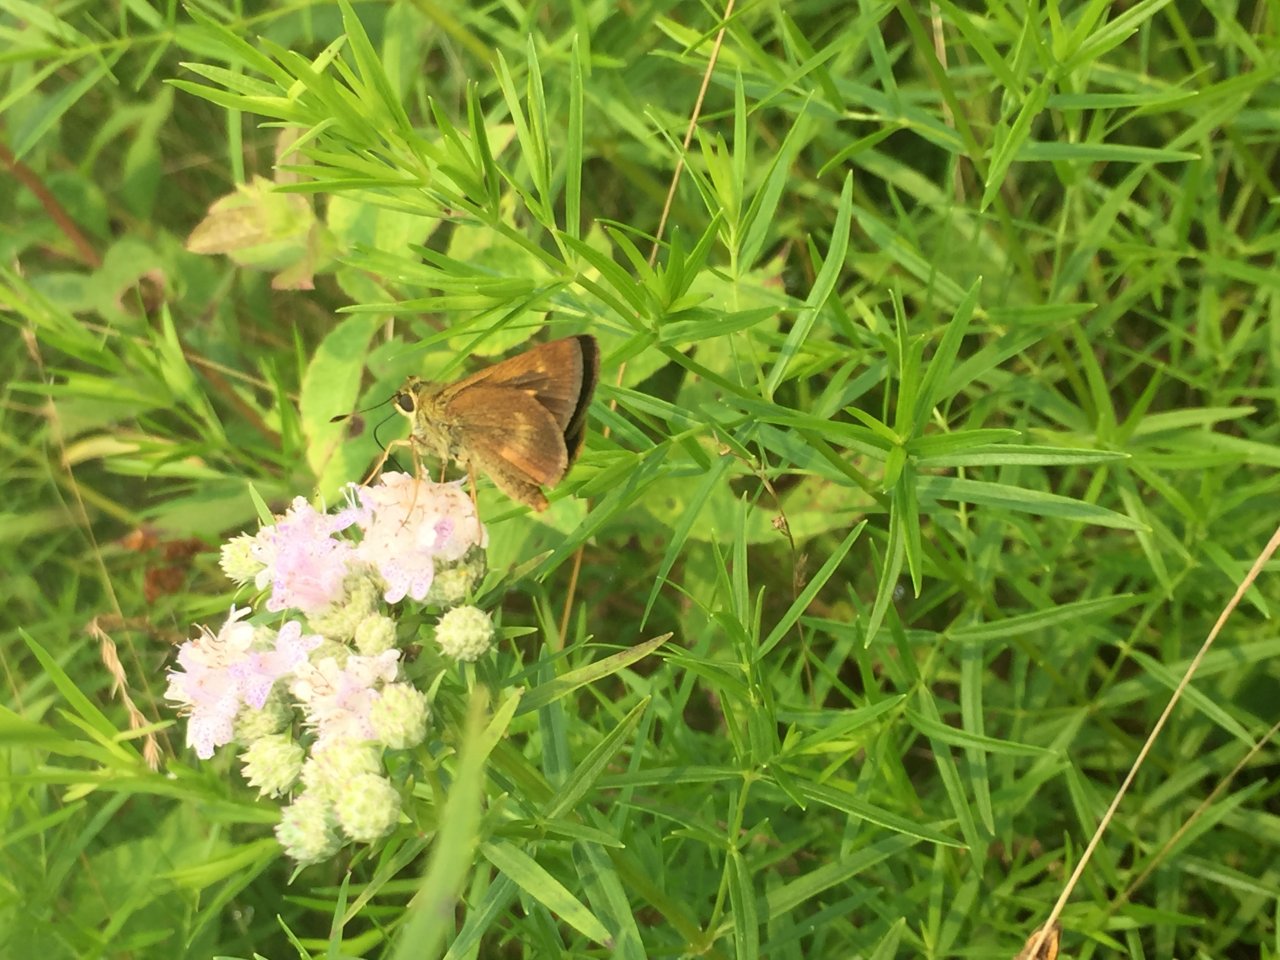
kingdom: Animalia
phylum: Arthropoda
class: Insecta
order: Lepidoptera
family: Hesperiidae
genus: Polites
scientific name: Polites
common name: Long Dash Skipper
